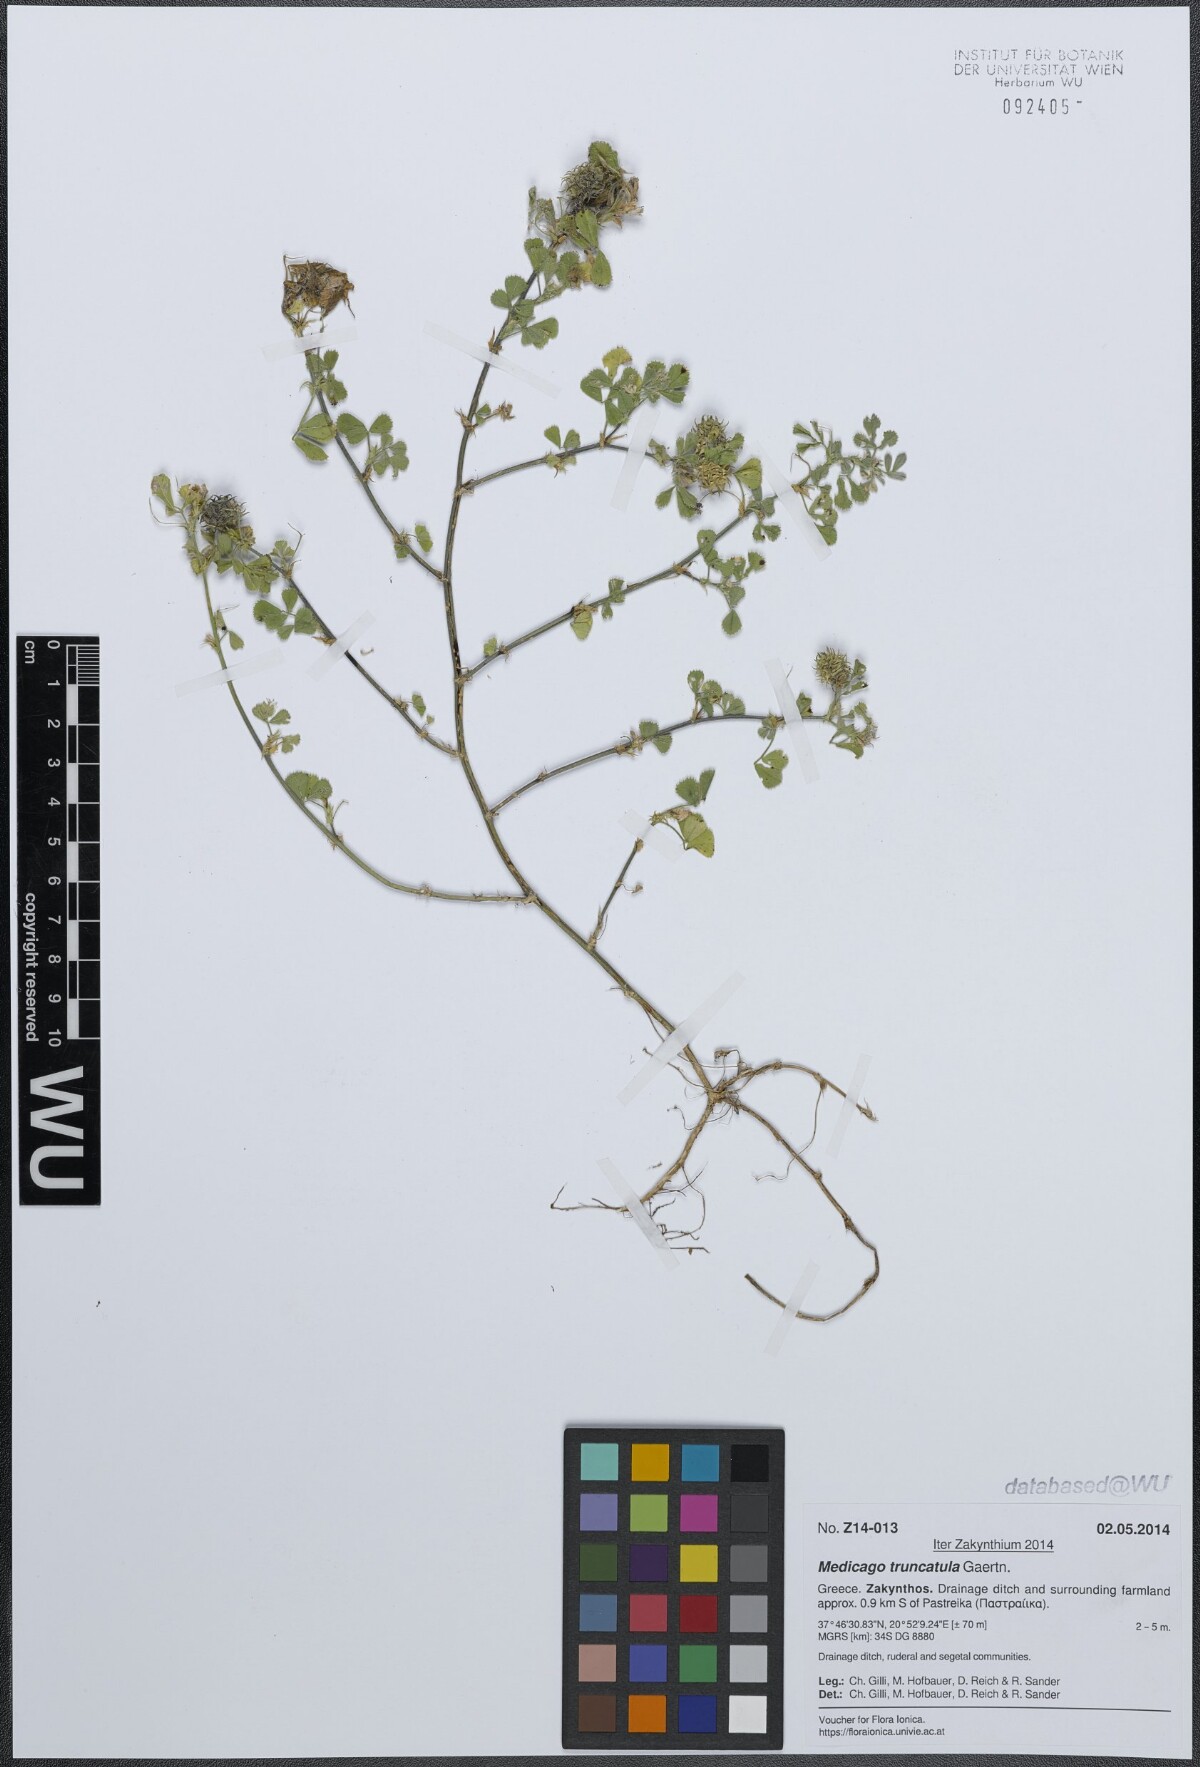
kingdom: Plantae
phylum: Tracheophyta
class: Magnoliopsida
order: Fabales
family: Fabaceae
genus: Medicago
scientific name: Medicago truncatula
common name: Strong-spined medick
